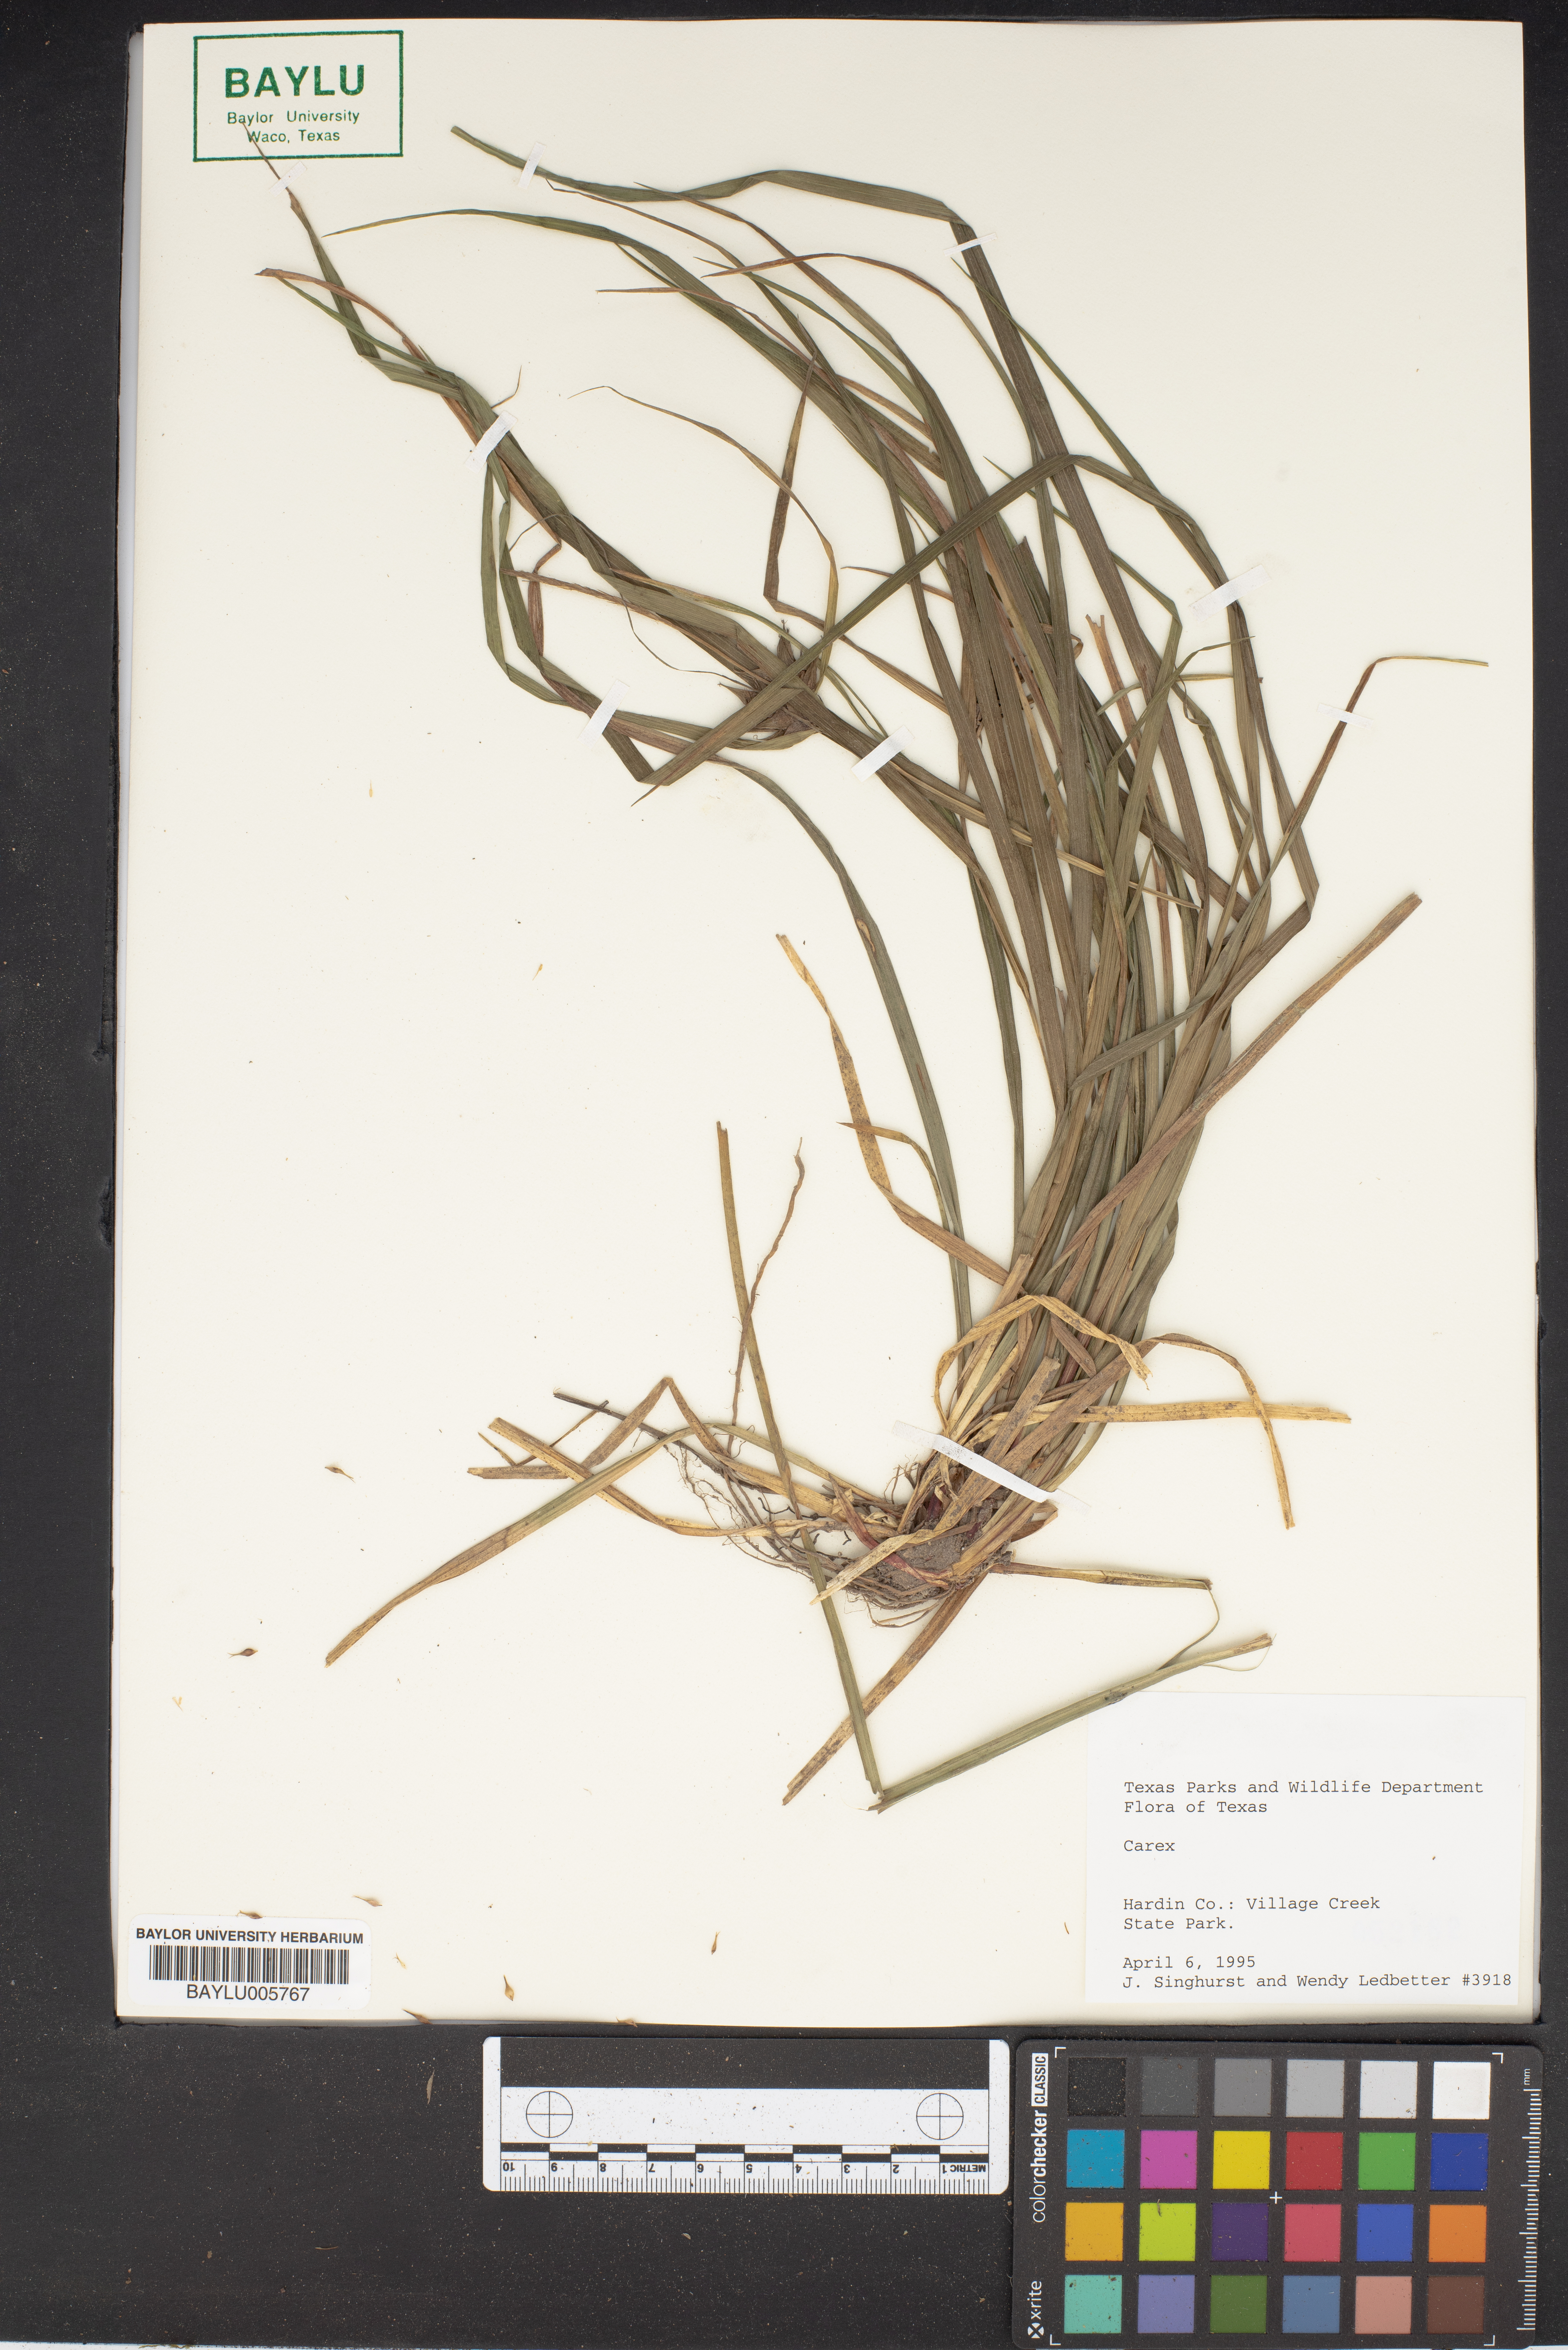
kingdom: Plantae
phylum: Tracheophyta
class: Liliopsida
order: Poales
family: Cyperaceae
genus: Carex
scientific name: Carex
